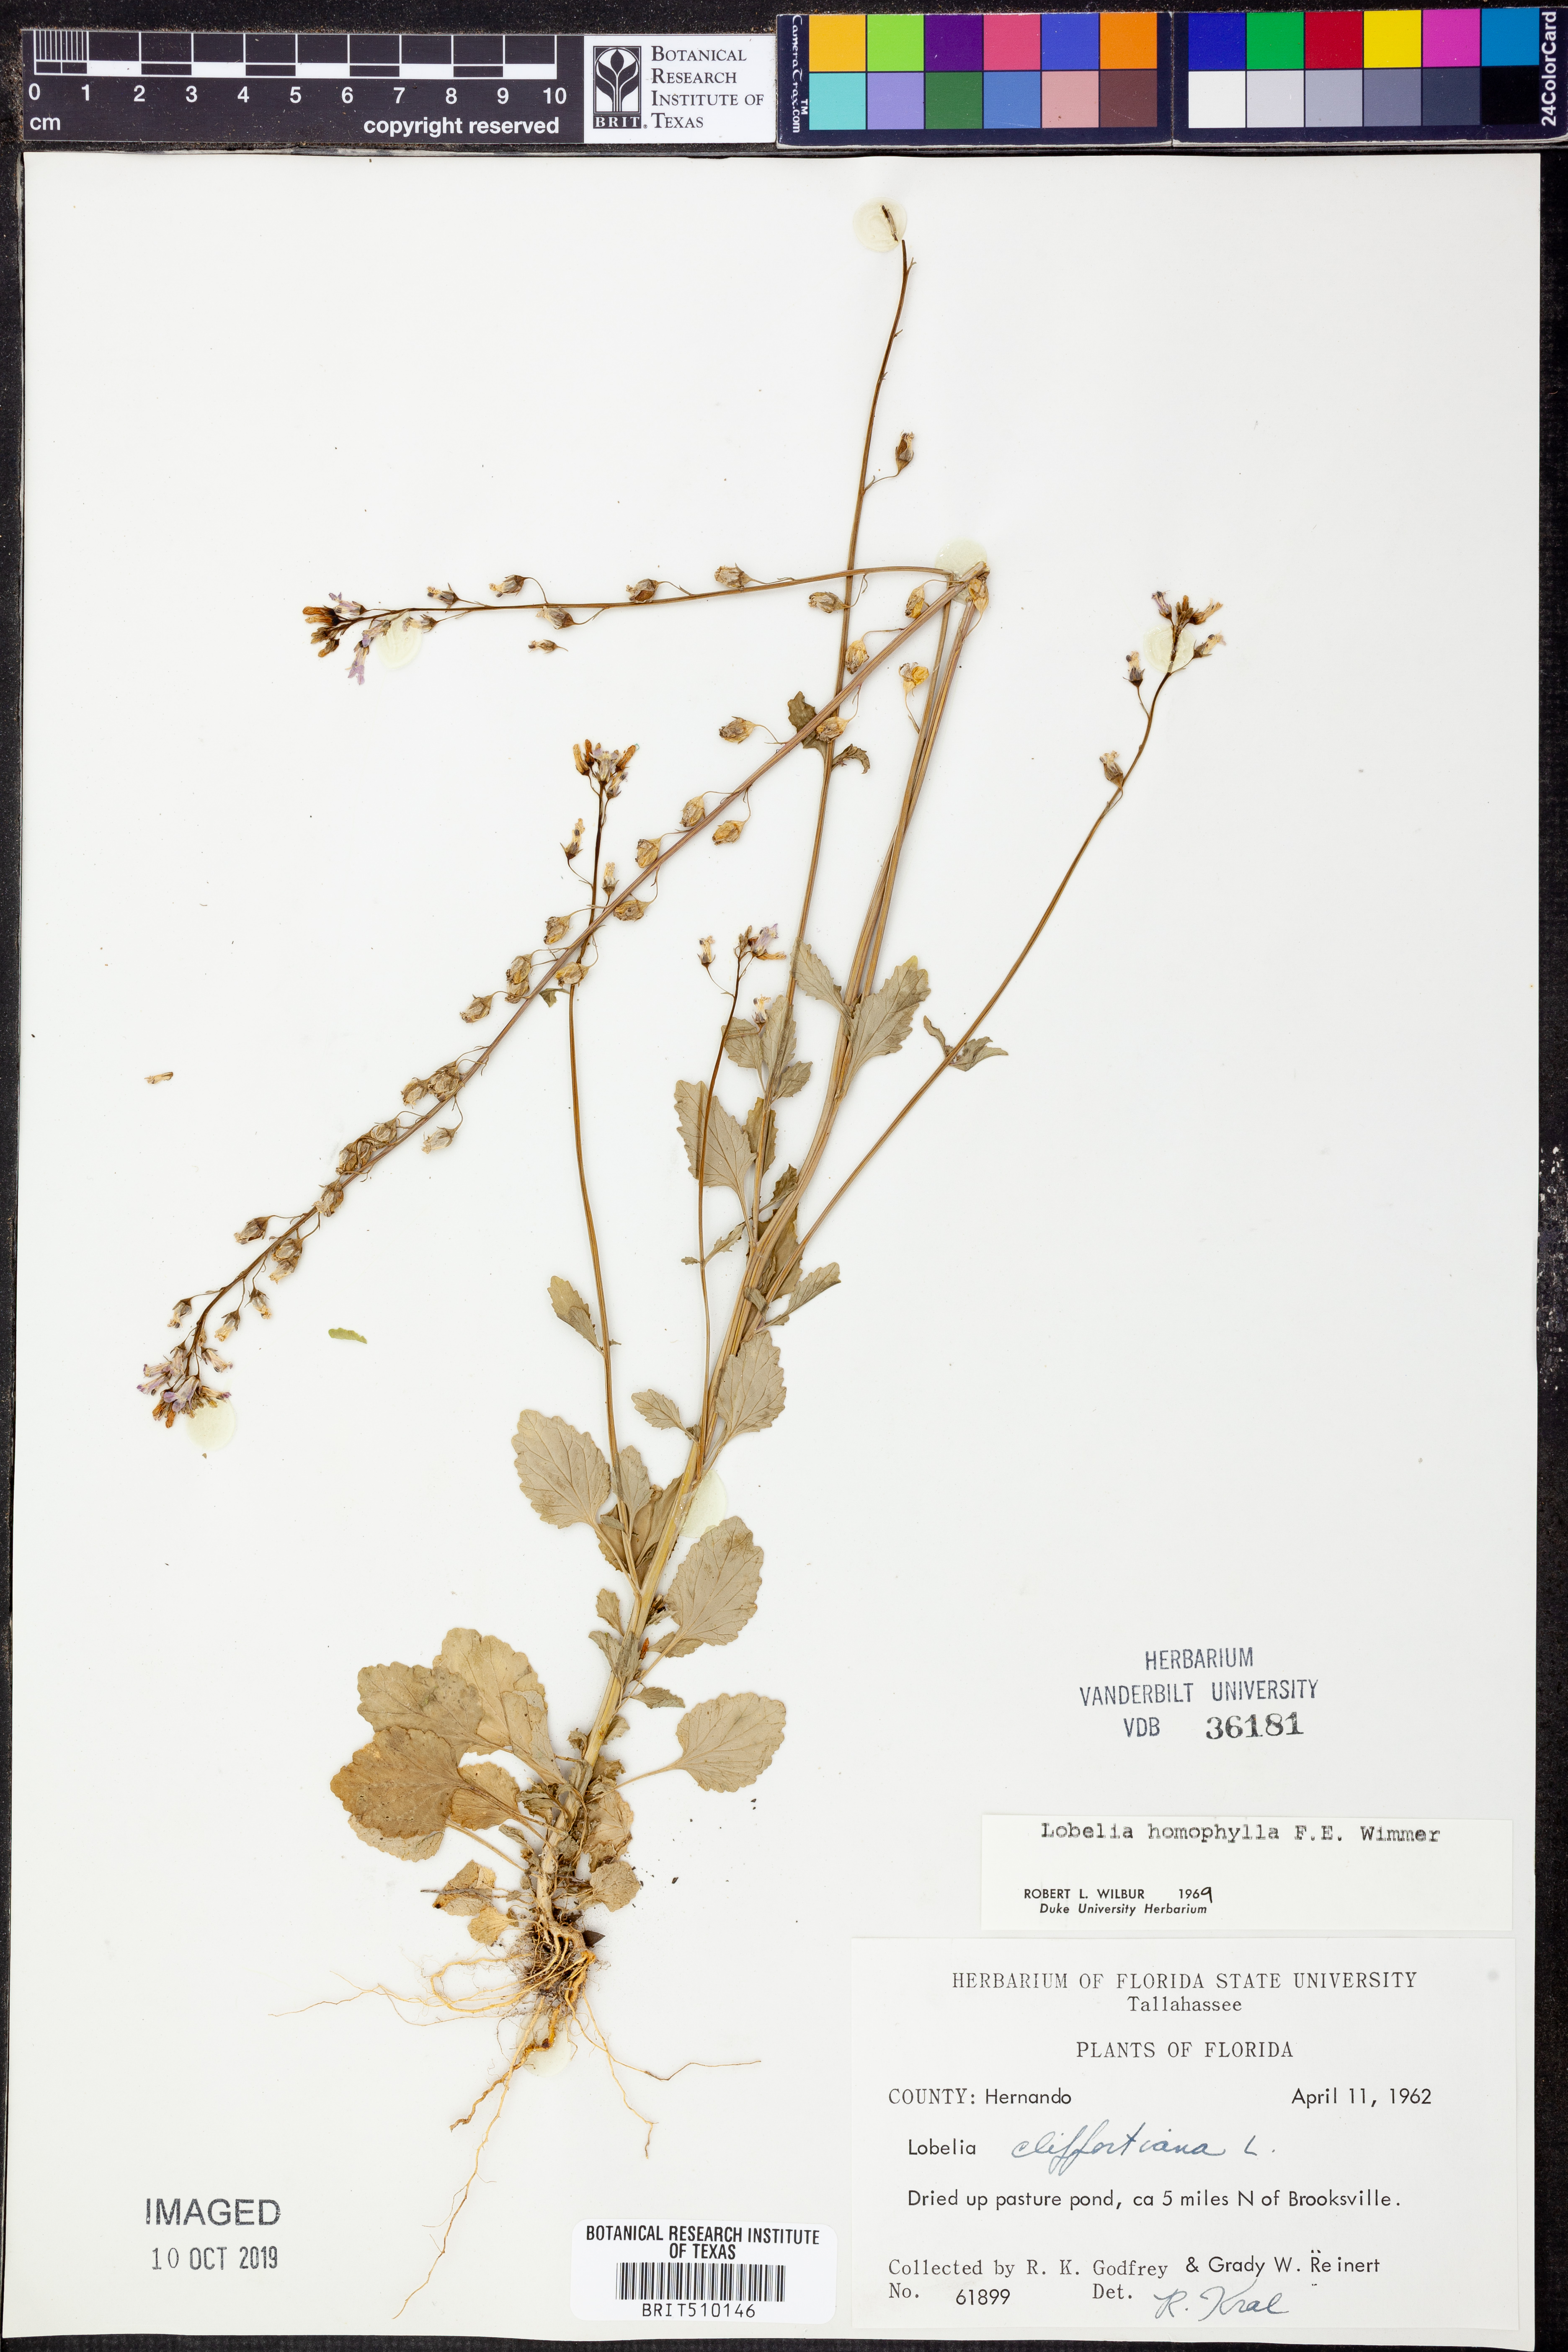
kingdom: Plantae
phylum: Tracheophyta
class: Magnoliopsida
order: Asterales
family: Campanulaceae
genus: Lobelia
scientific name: Lobelia homophylla
